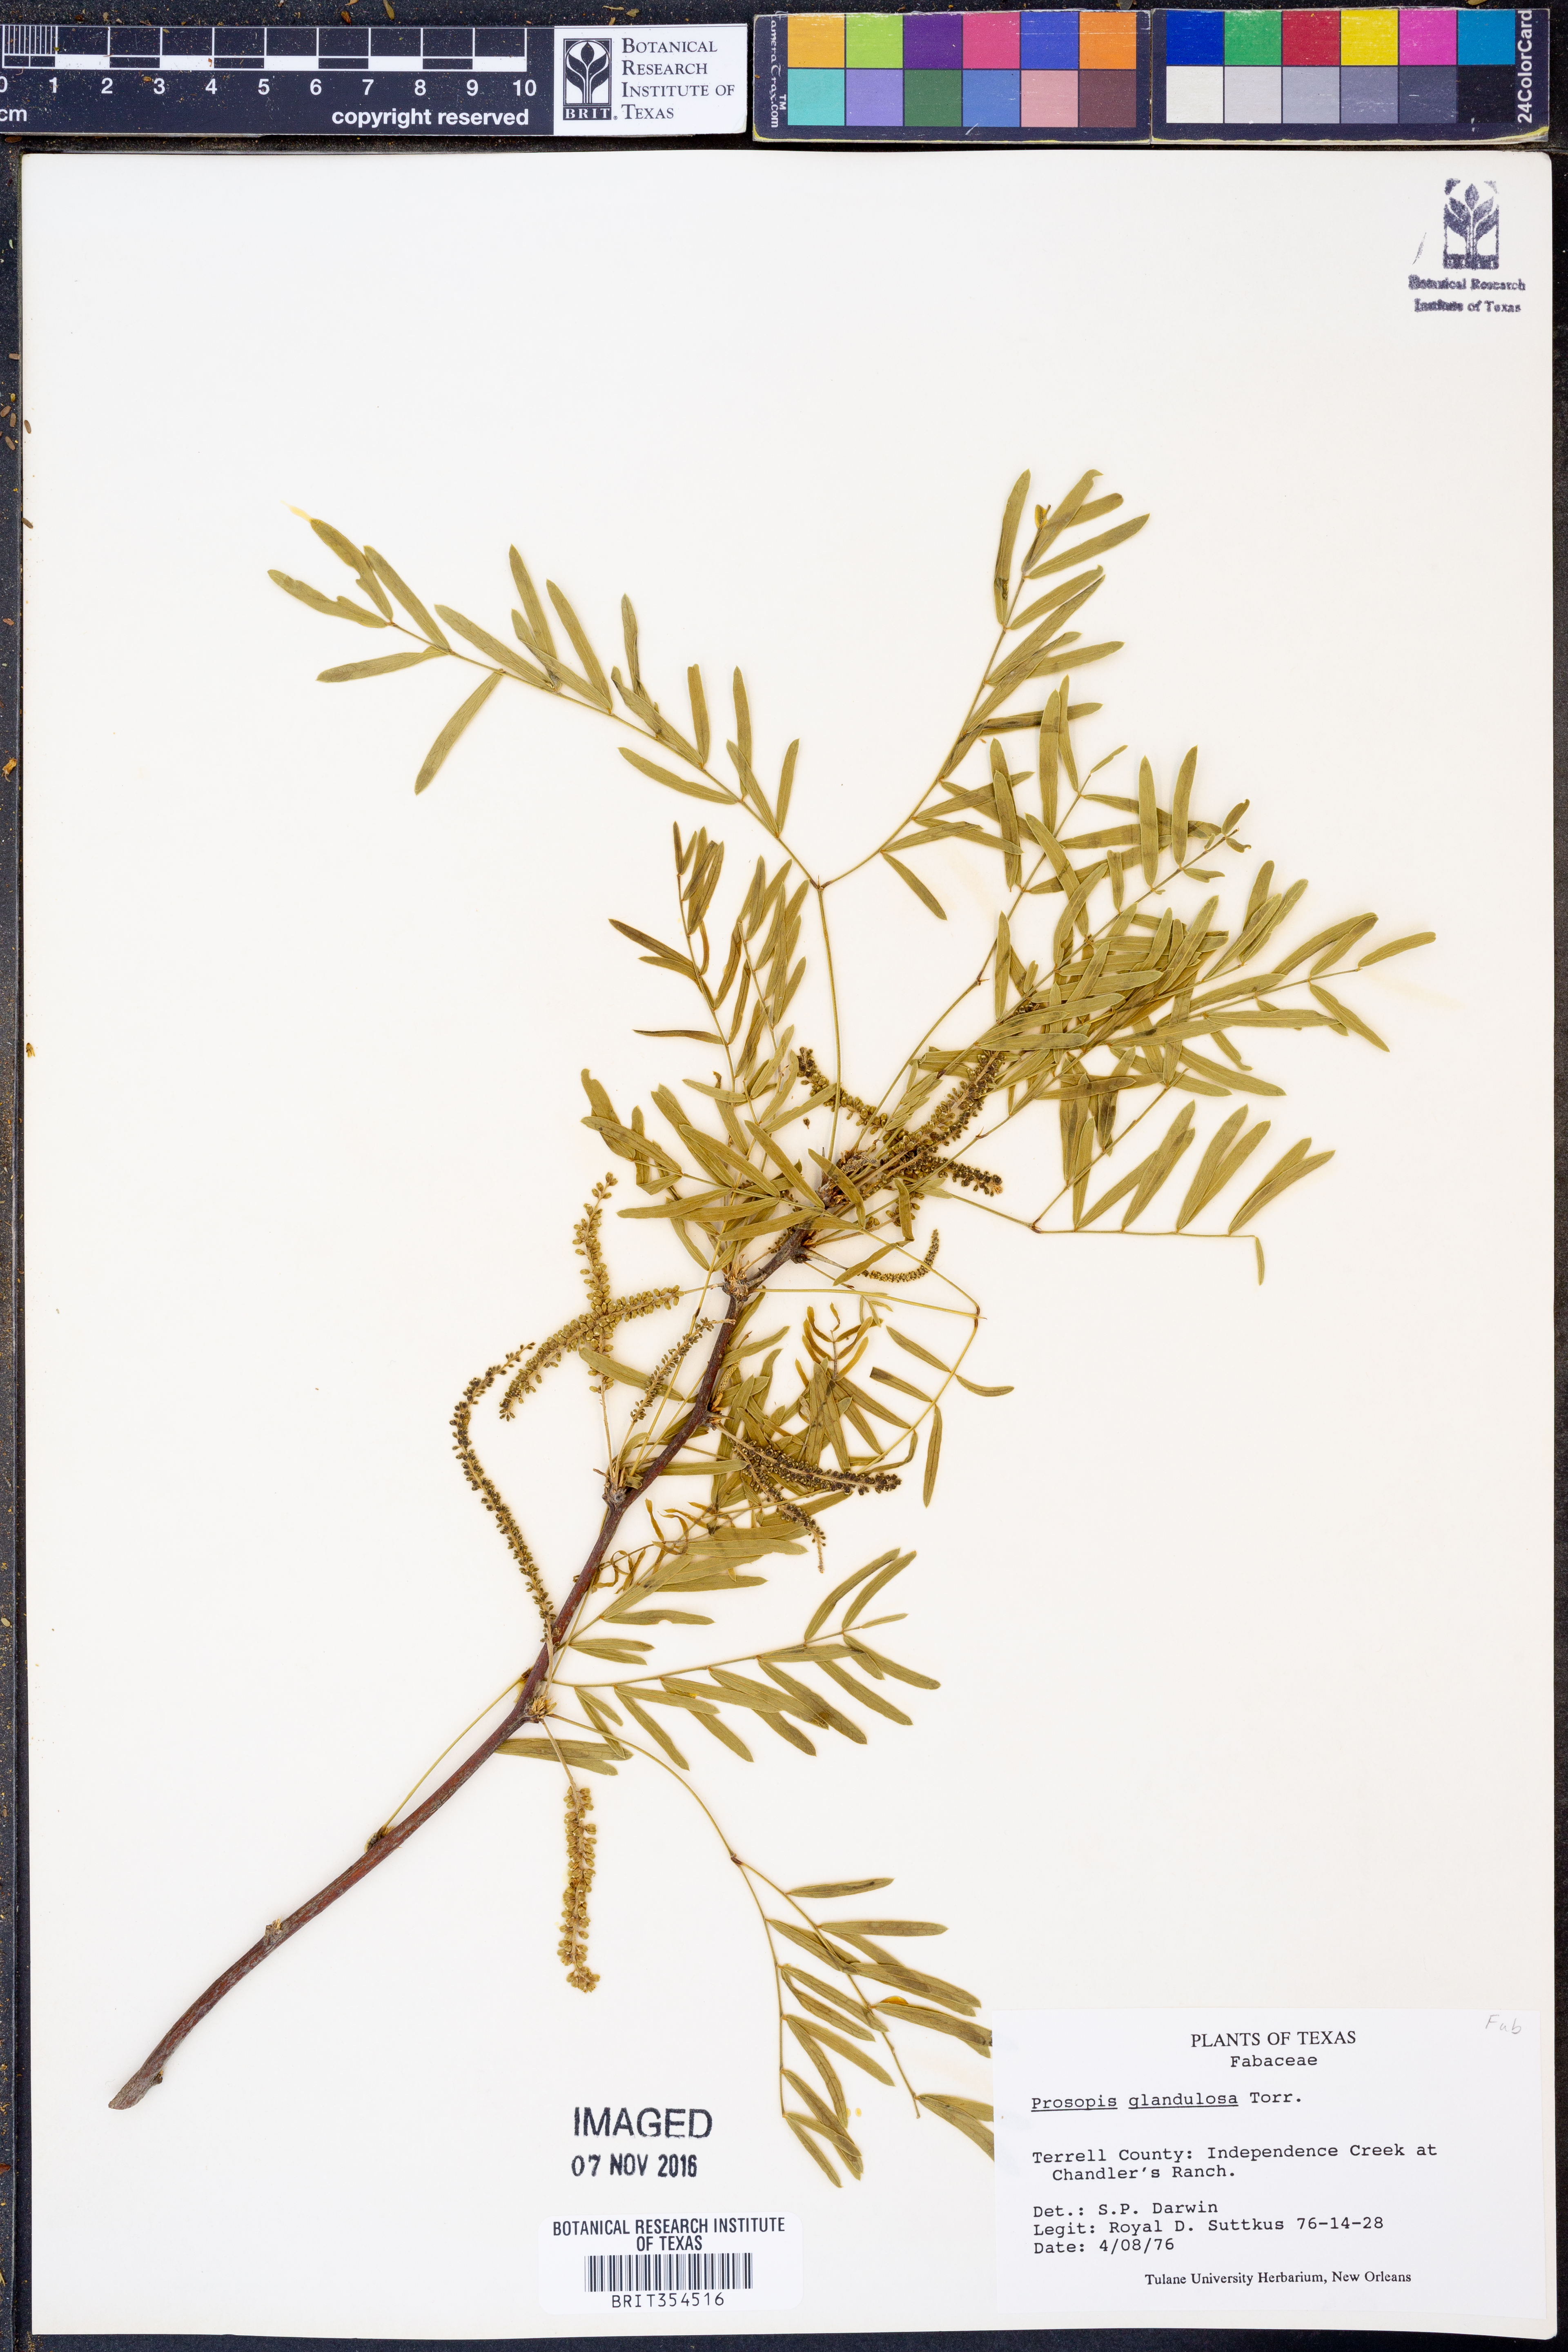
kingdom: Plantae
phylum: Tracheophyta
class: Magnoliopsida
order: Fabales
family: Fabaceae
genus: Prosopis
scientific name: Prosopis glandulosa
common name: Honey mesquite
